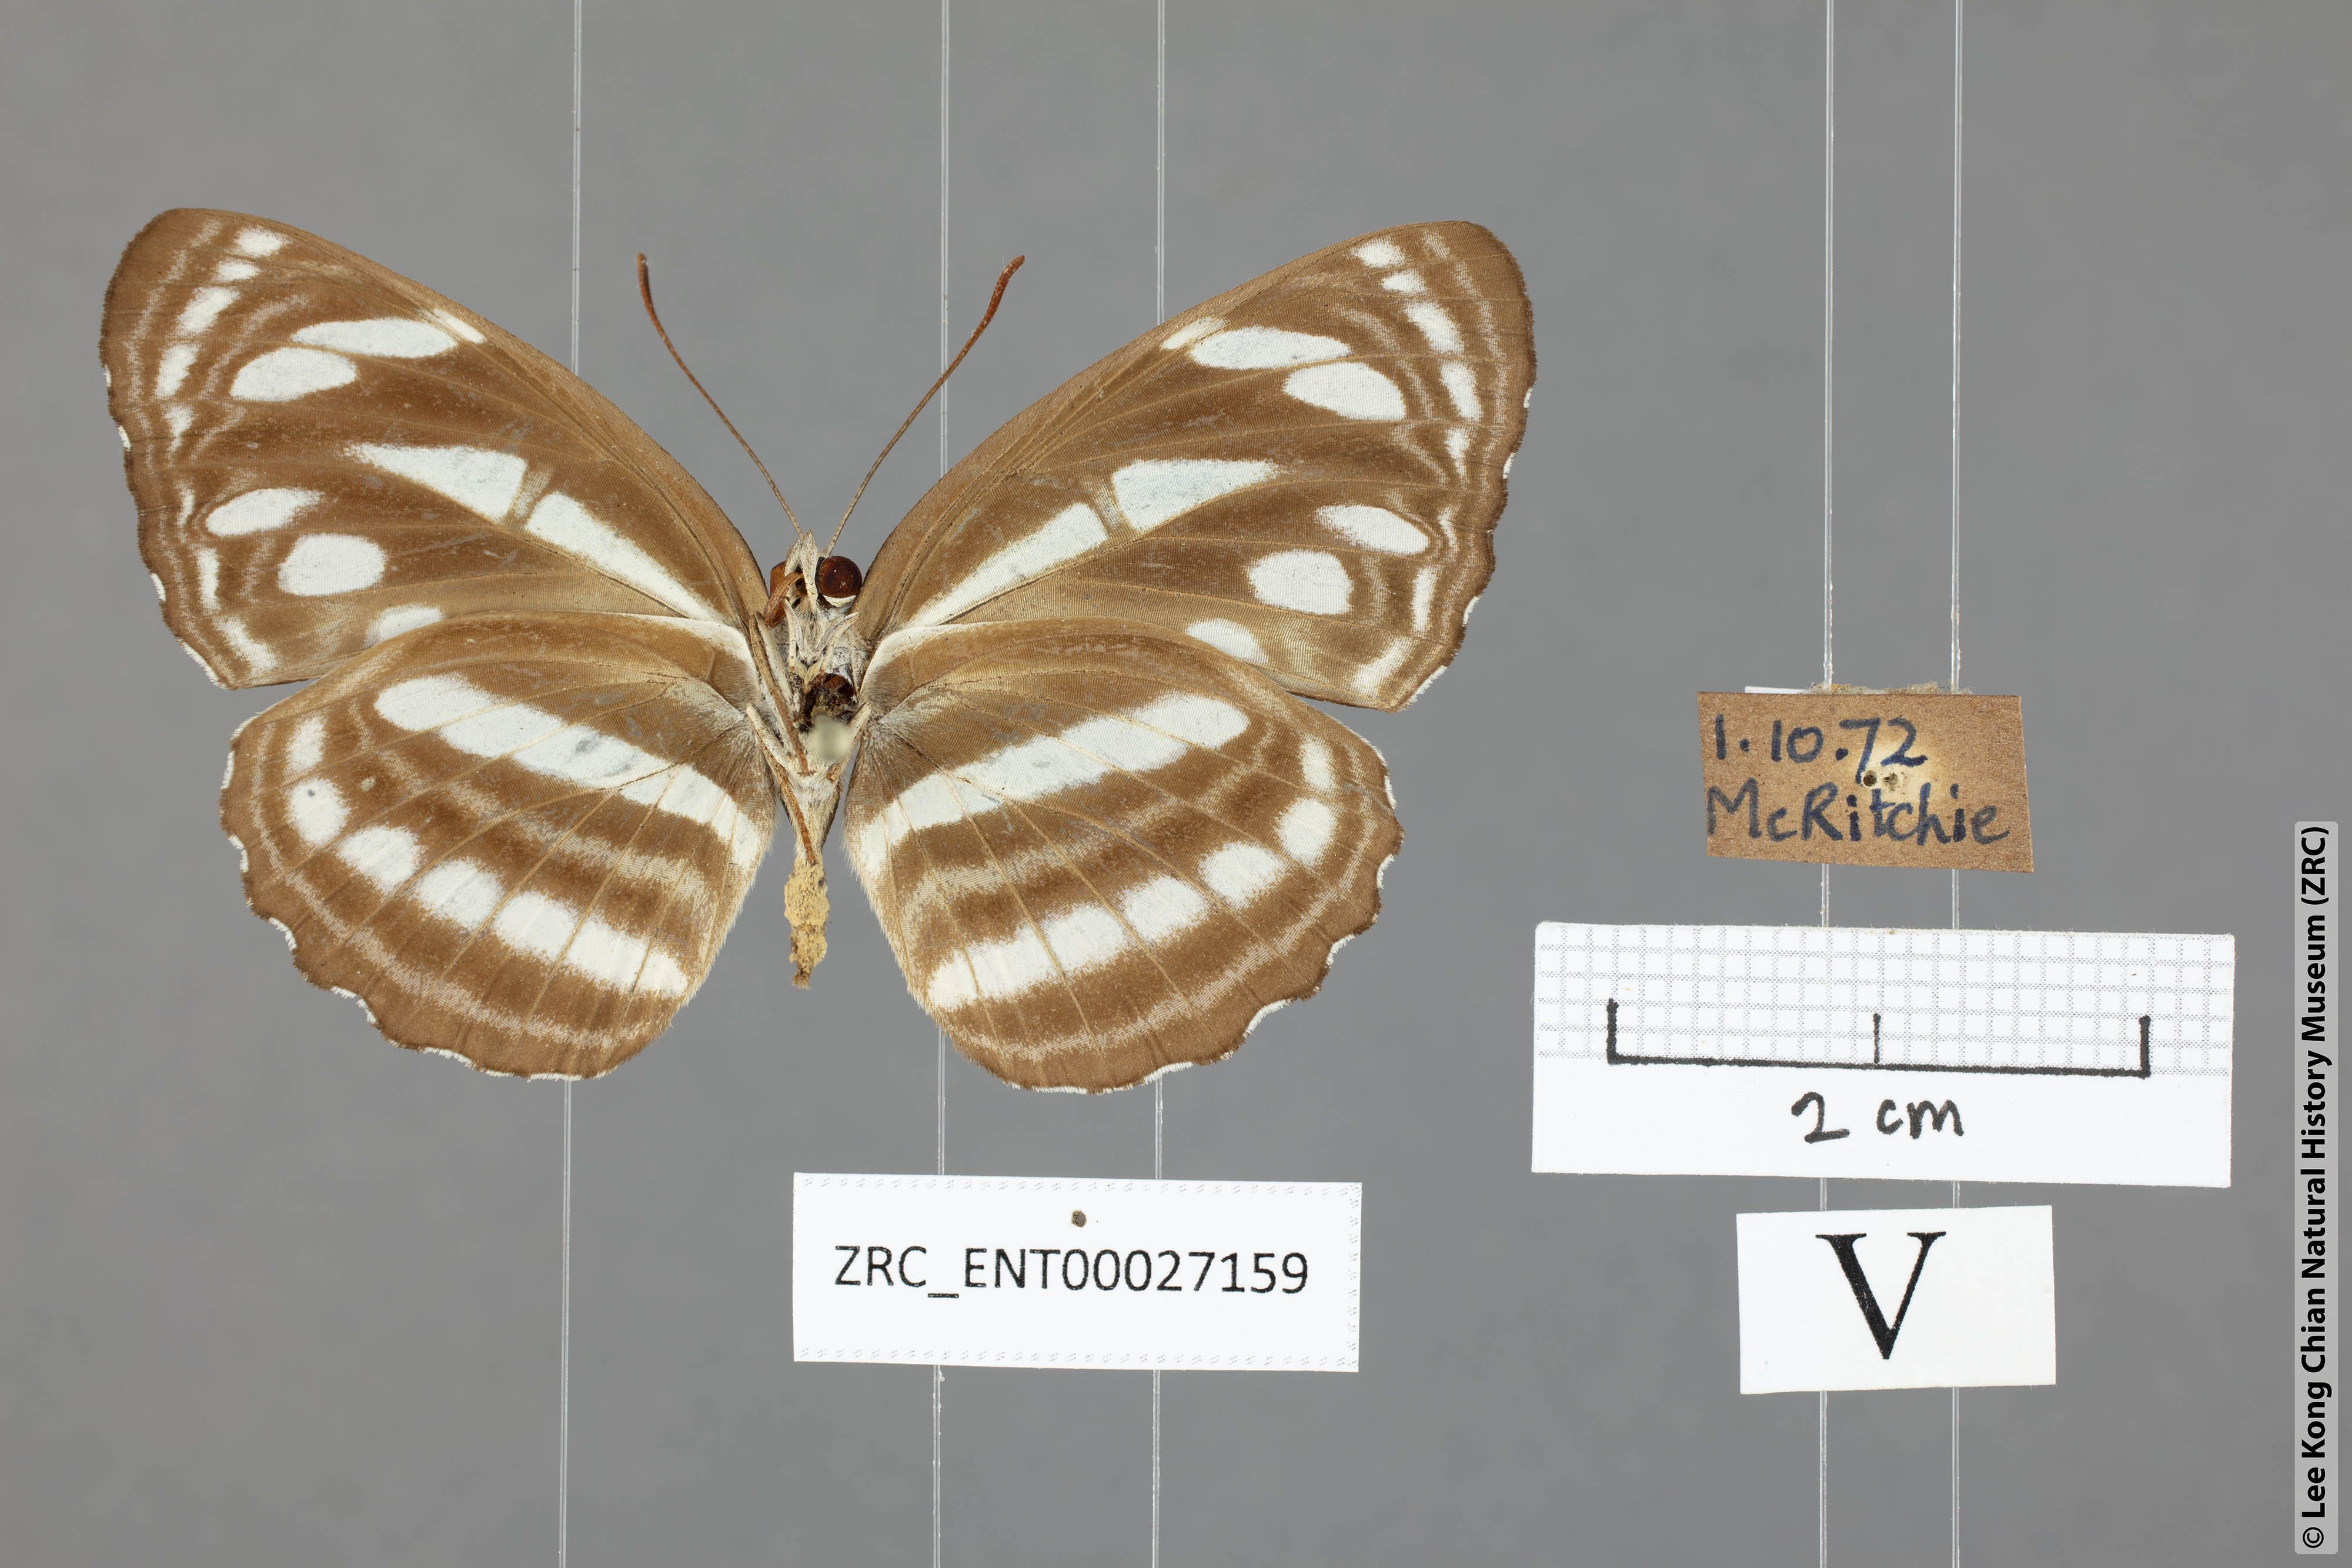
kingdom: Animalia
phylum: Arthropoda
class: Insecta
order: Lepidoptera
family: Nymphalidae
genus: Neptis
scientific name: Neptis leucoporus
